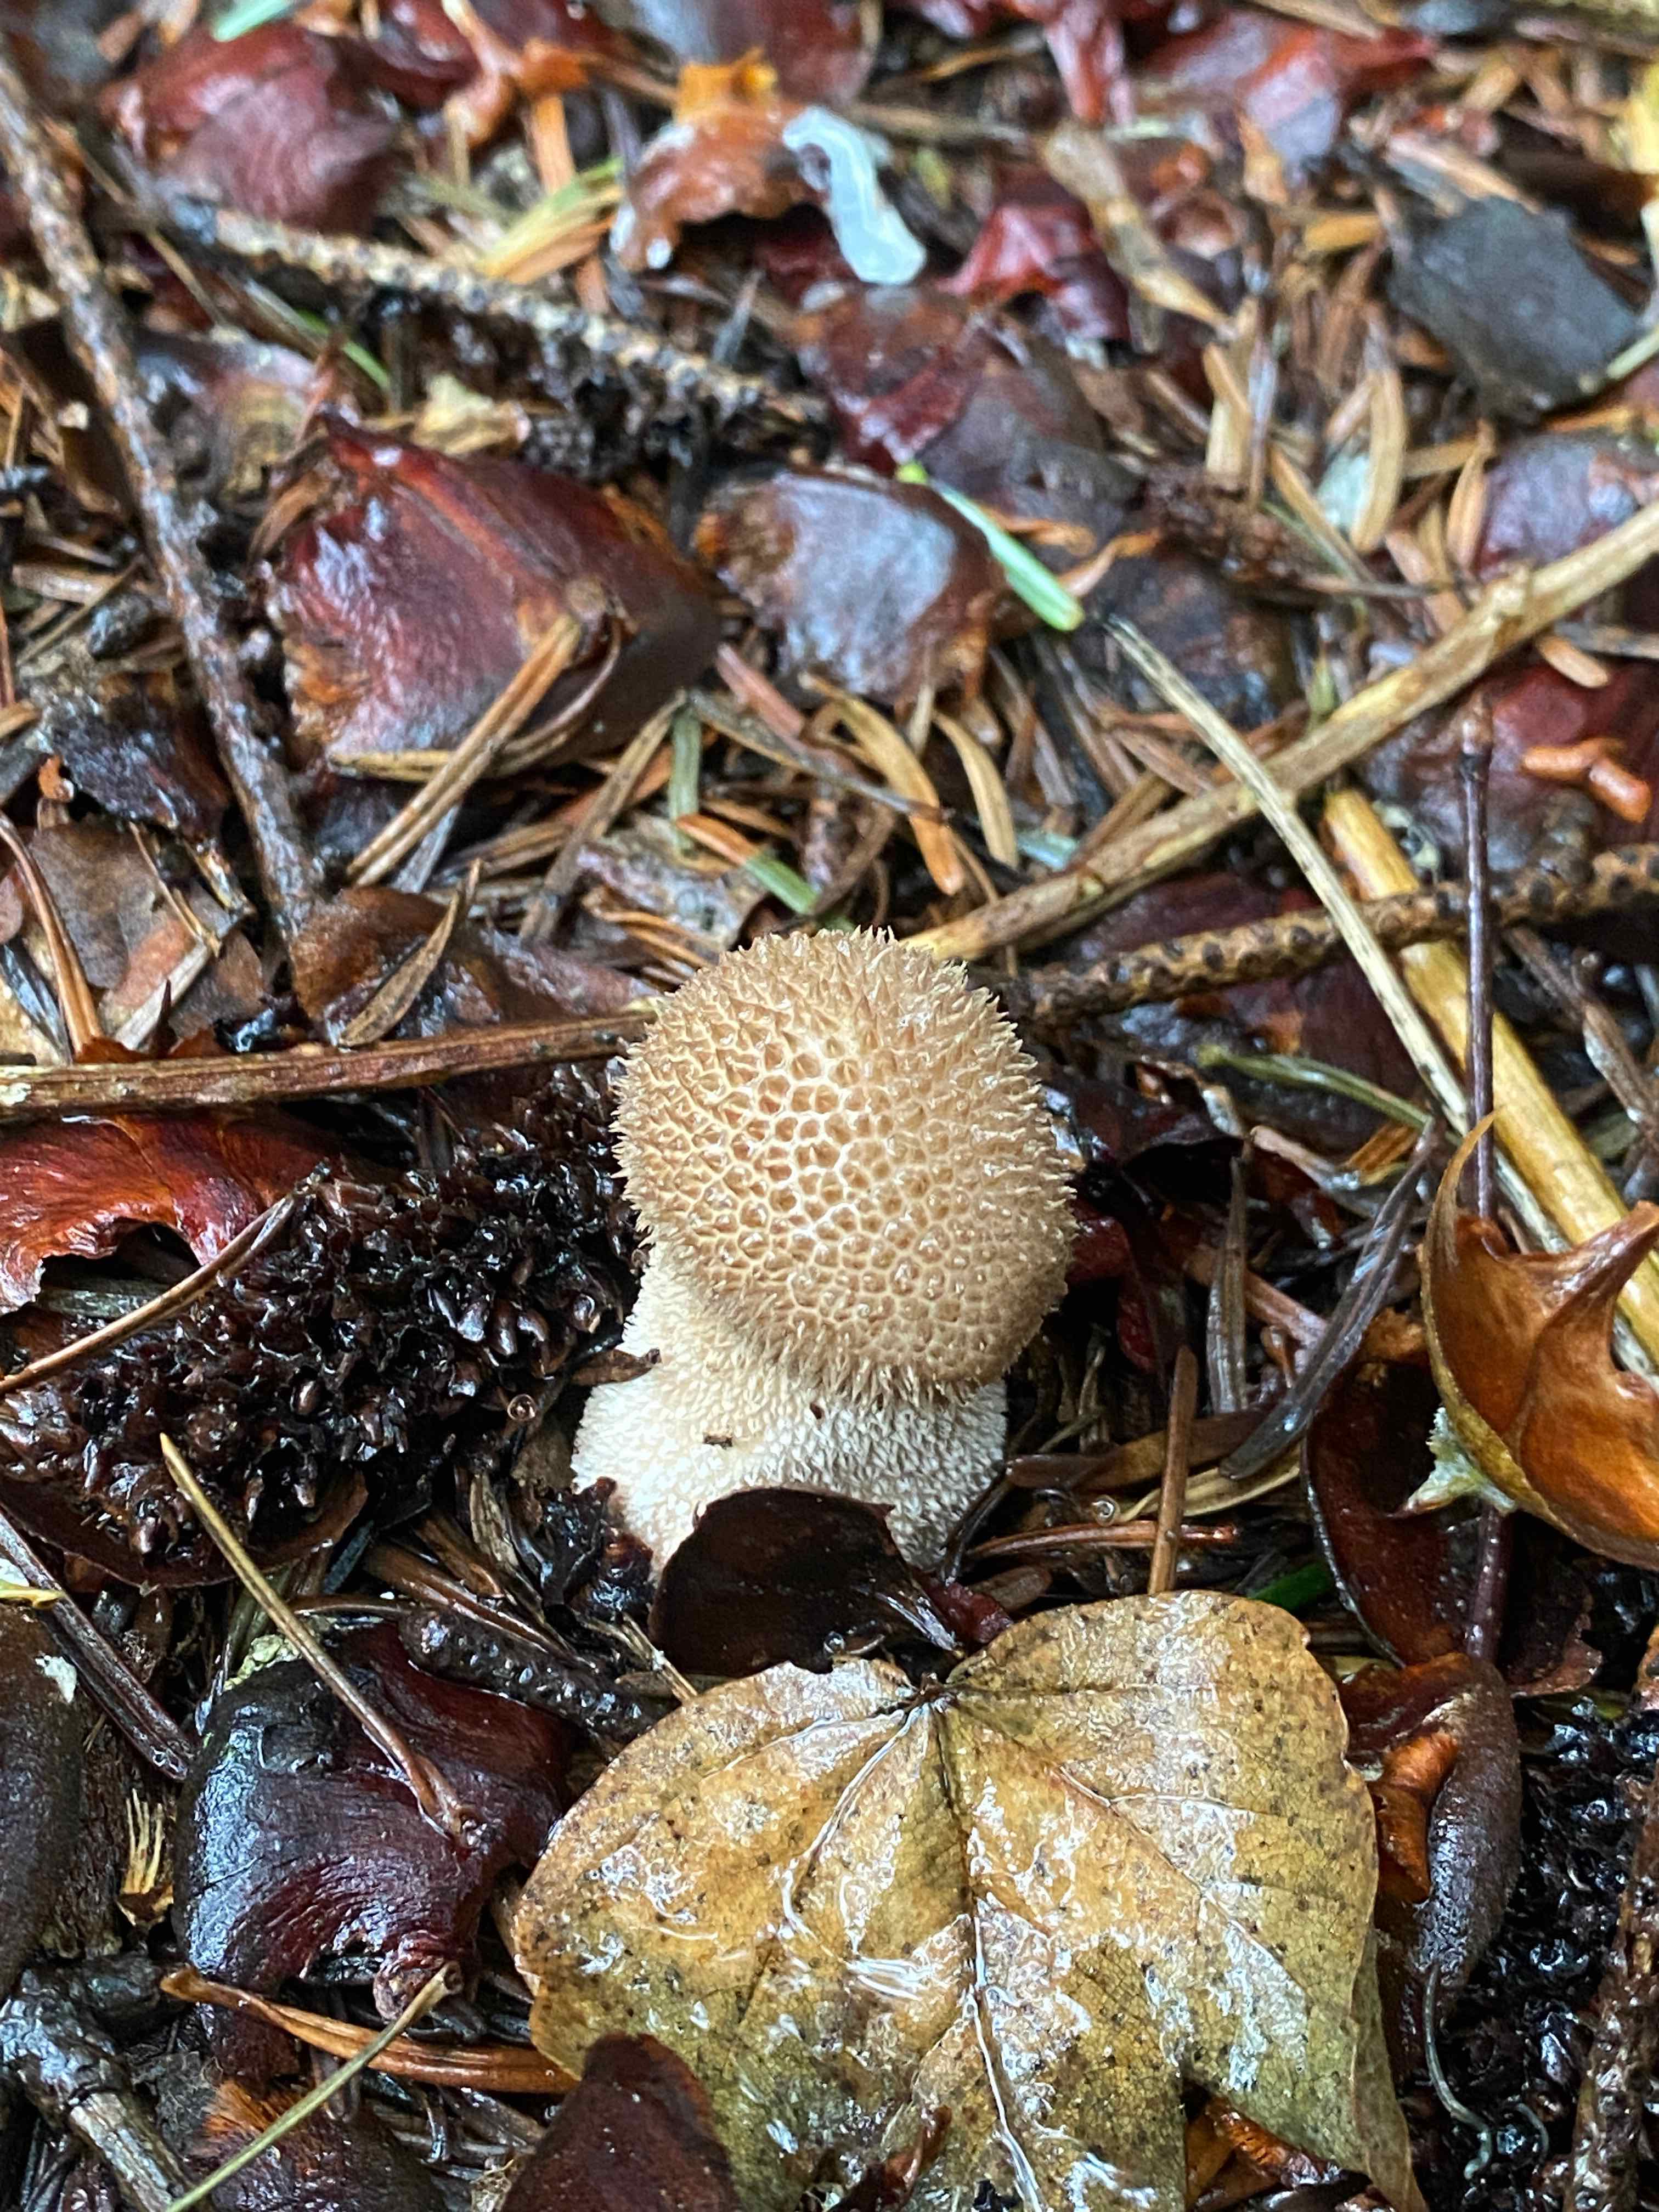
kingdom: Fungi
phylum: Basidiomycota
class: Agaricomycetes
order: Agaricales
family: Agaricaceae
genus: Lycoperdon
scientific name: Lycoperdon
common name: støvbold
